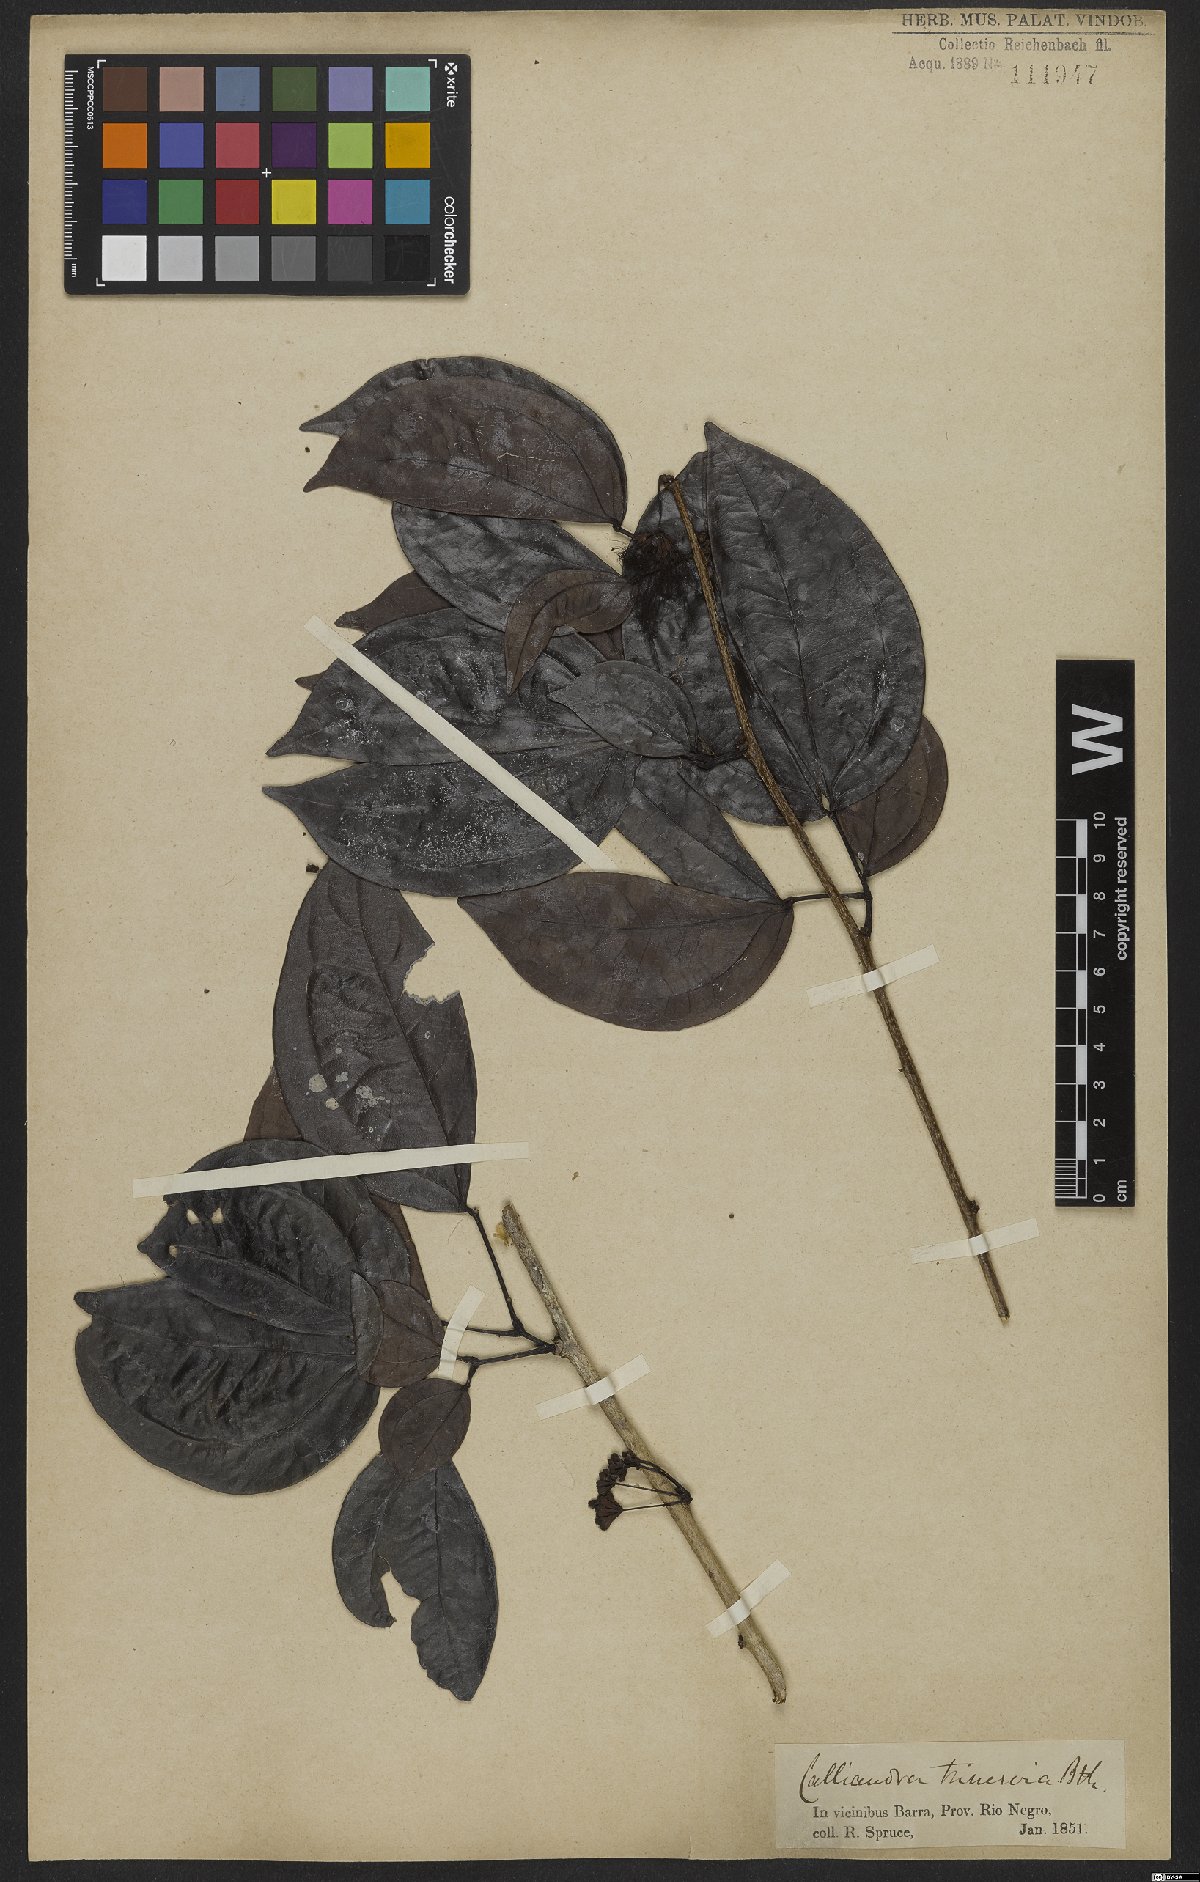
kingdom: Plantae
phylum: Tracheophyta
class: Magnoliopsida
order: Fabales
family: Fabaceae
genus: Calliandra
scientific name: Calliandra trinervia
